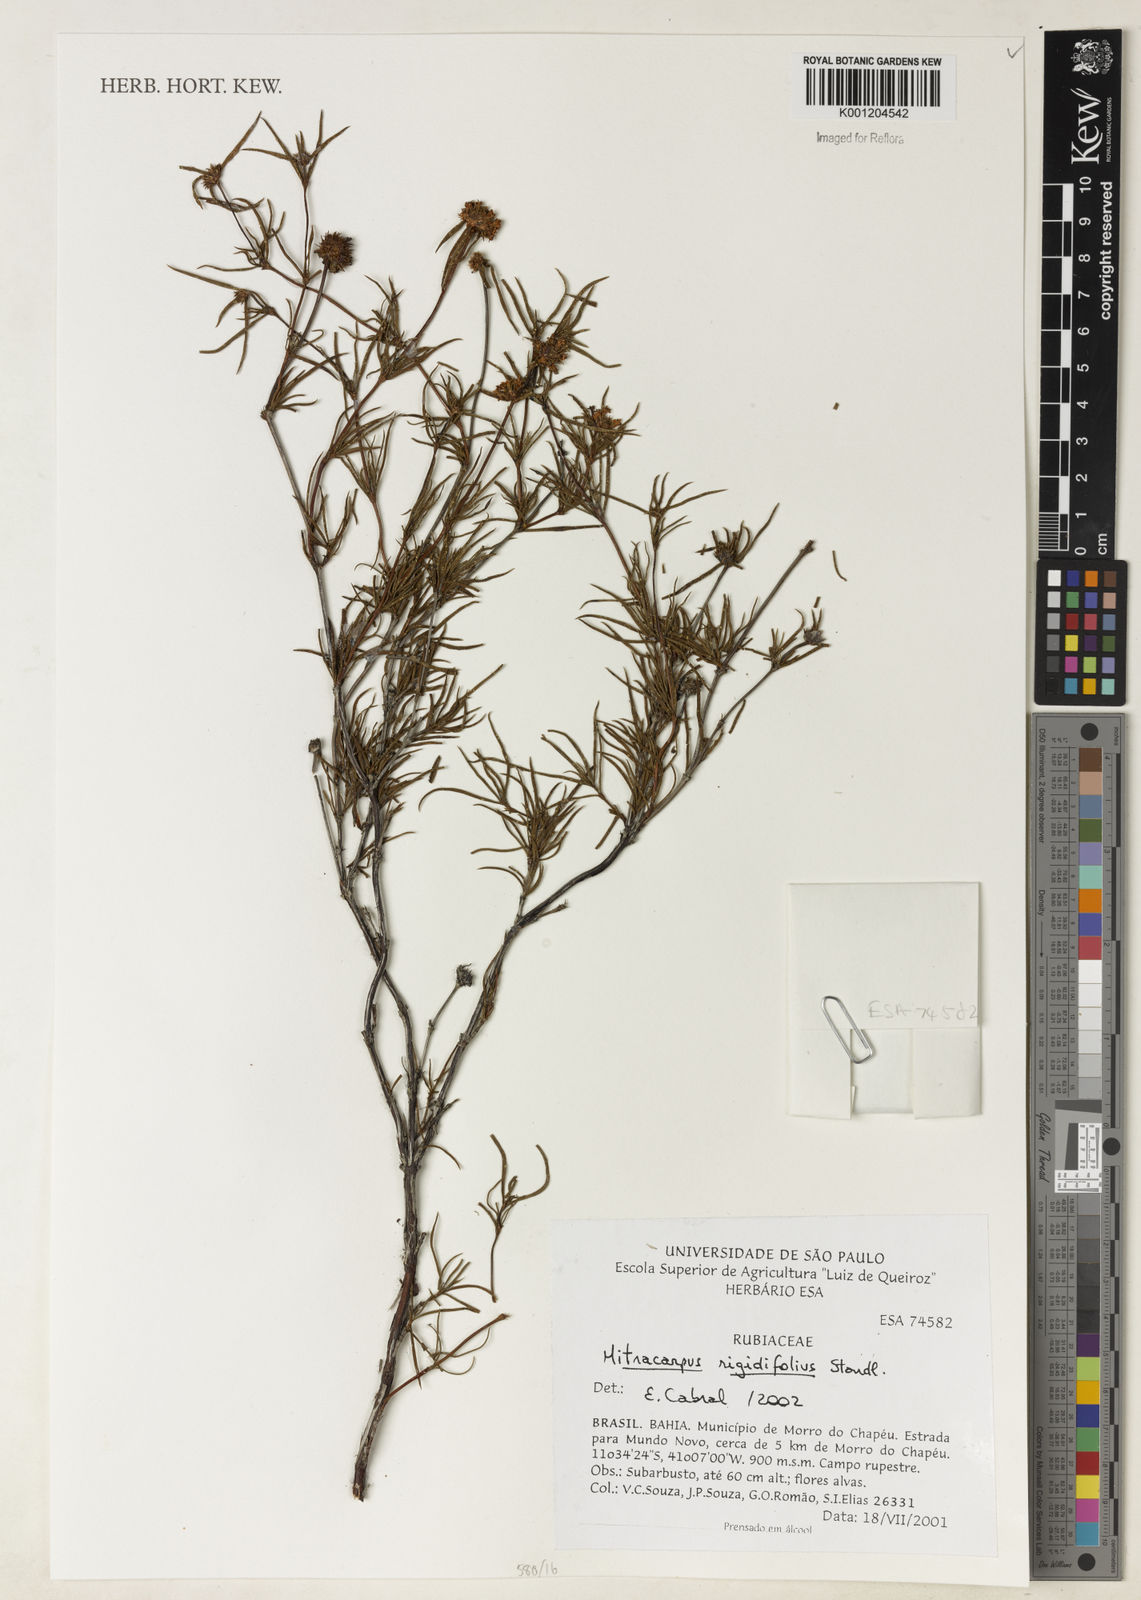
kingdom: Plantae
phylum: Tracheophyta
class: Magnoliopsida
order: Gentianales
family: Rubiaceae
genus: Mitracarpus
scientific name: Mitracarpus rigidifolius
